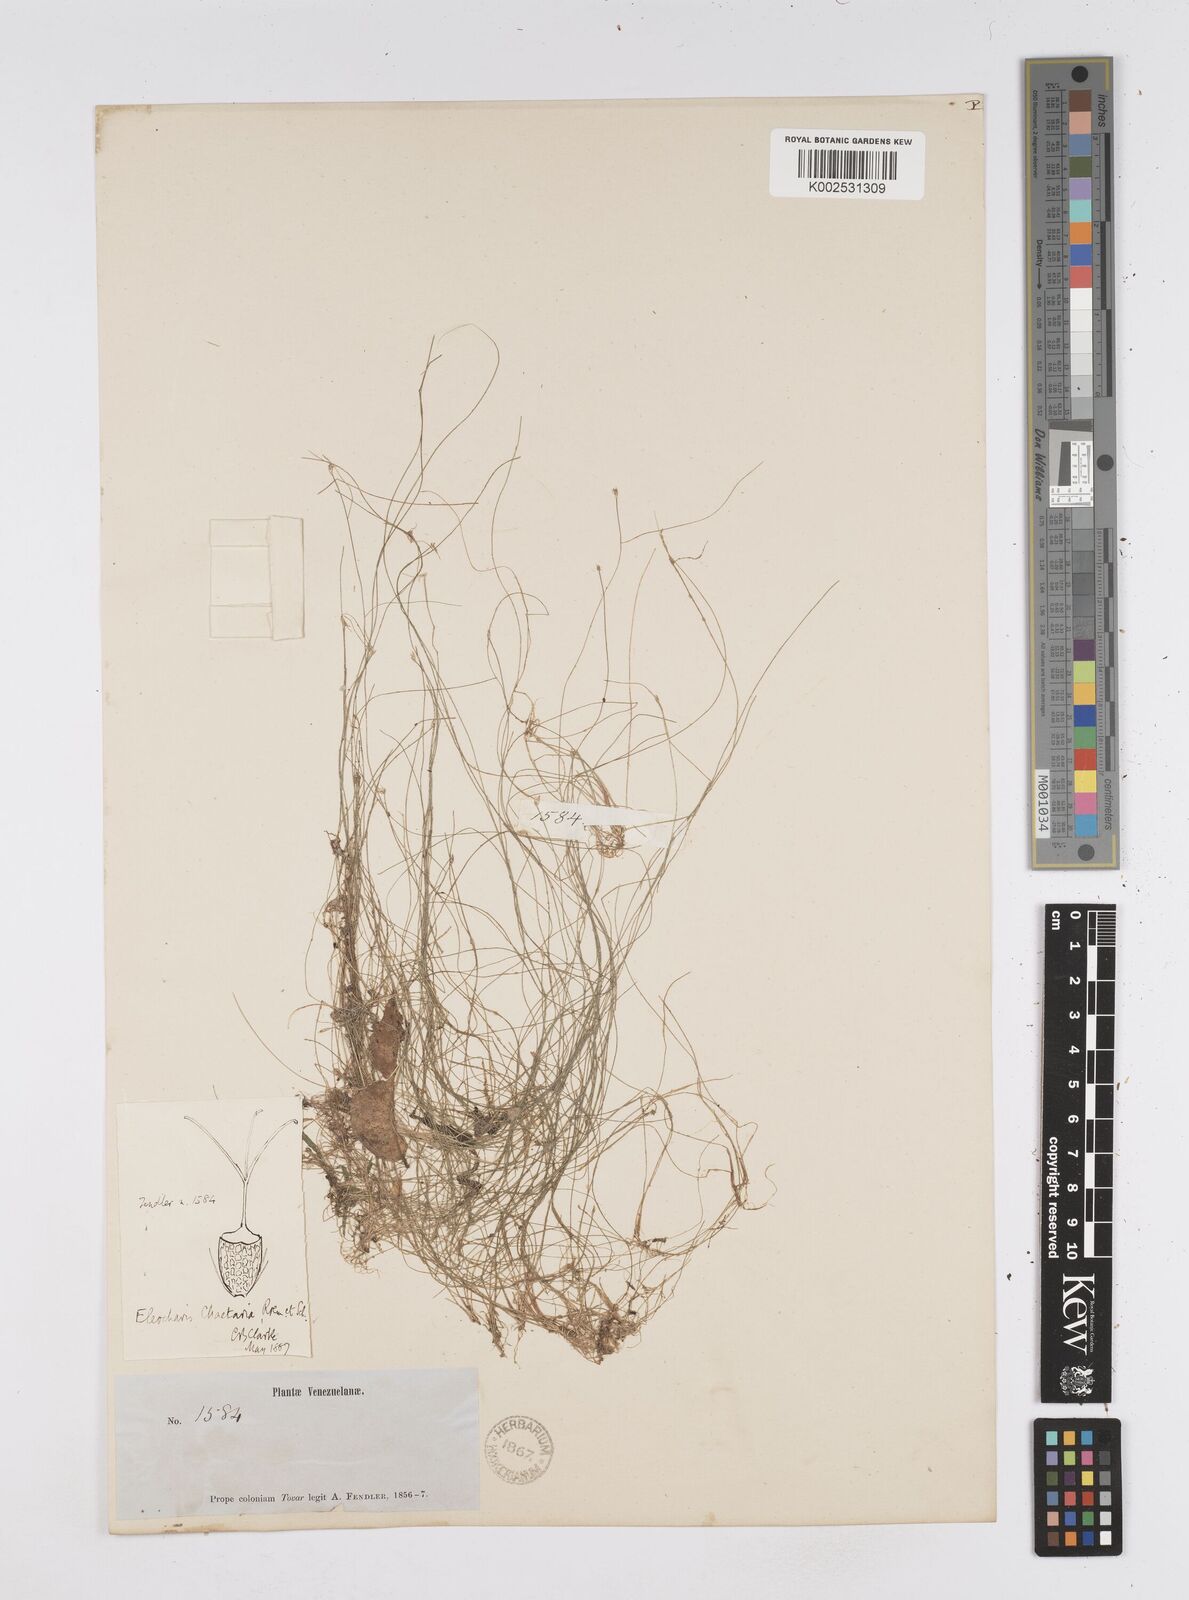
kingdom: Plantae
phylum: Tracheophyta
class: Liliopsida
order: Poales
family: Cyperaceae
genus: Eleocharis
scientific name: Eleocharis retroflexa
